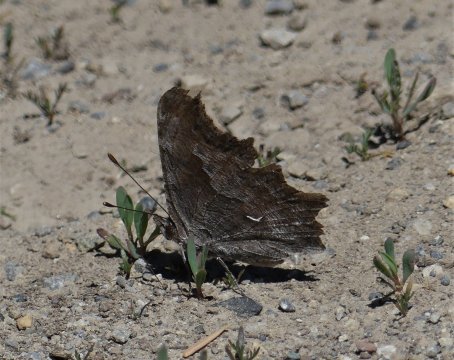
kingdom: Animalia
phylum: Arthropoda
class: Insecta
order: Lepidoptera
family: Nymphalidae
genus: Polygonia
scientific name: Polygonia gracilis
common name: Hoary Comma
